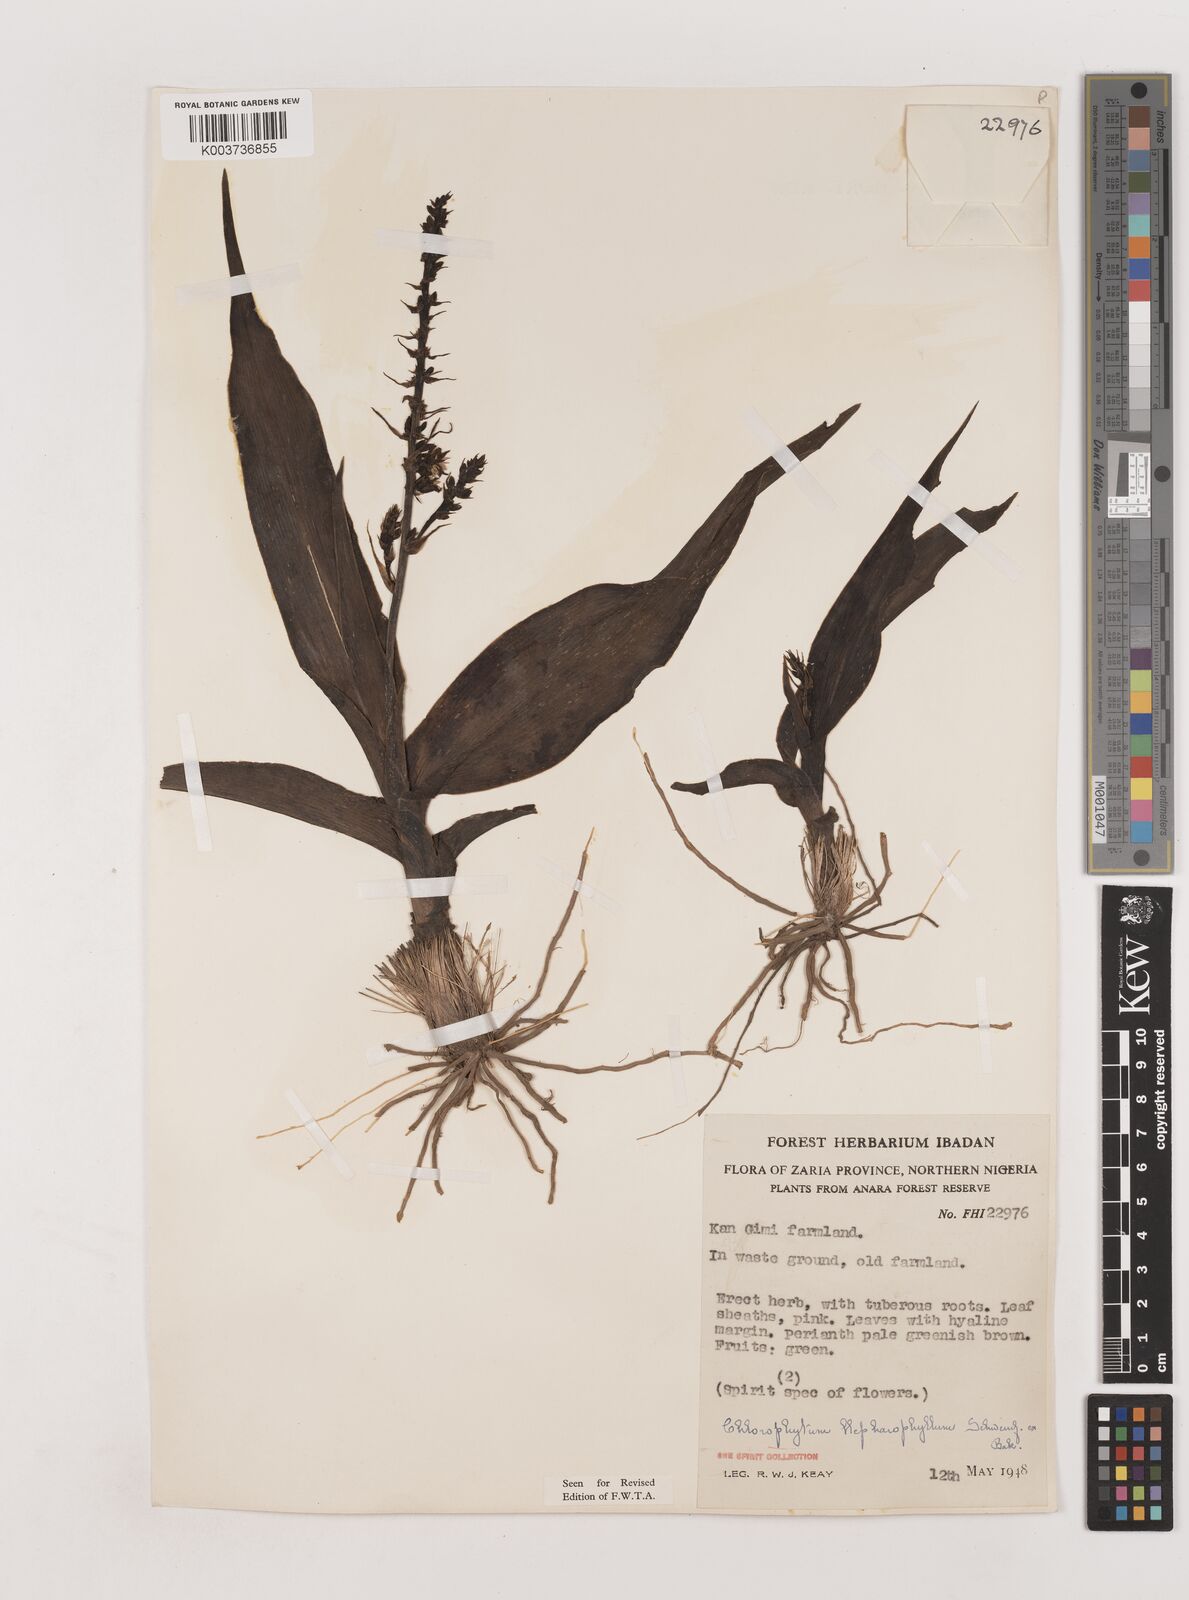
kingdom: Plantae
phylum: Tracheophyta
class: Liliopsida
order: Asparagales
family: Asparagaceae
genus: Chlorophytum
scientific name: Chlorophytum blepharophyllum
